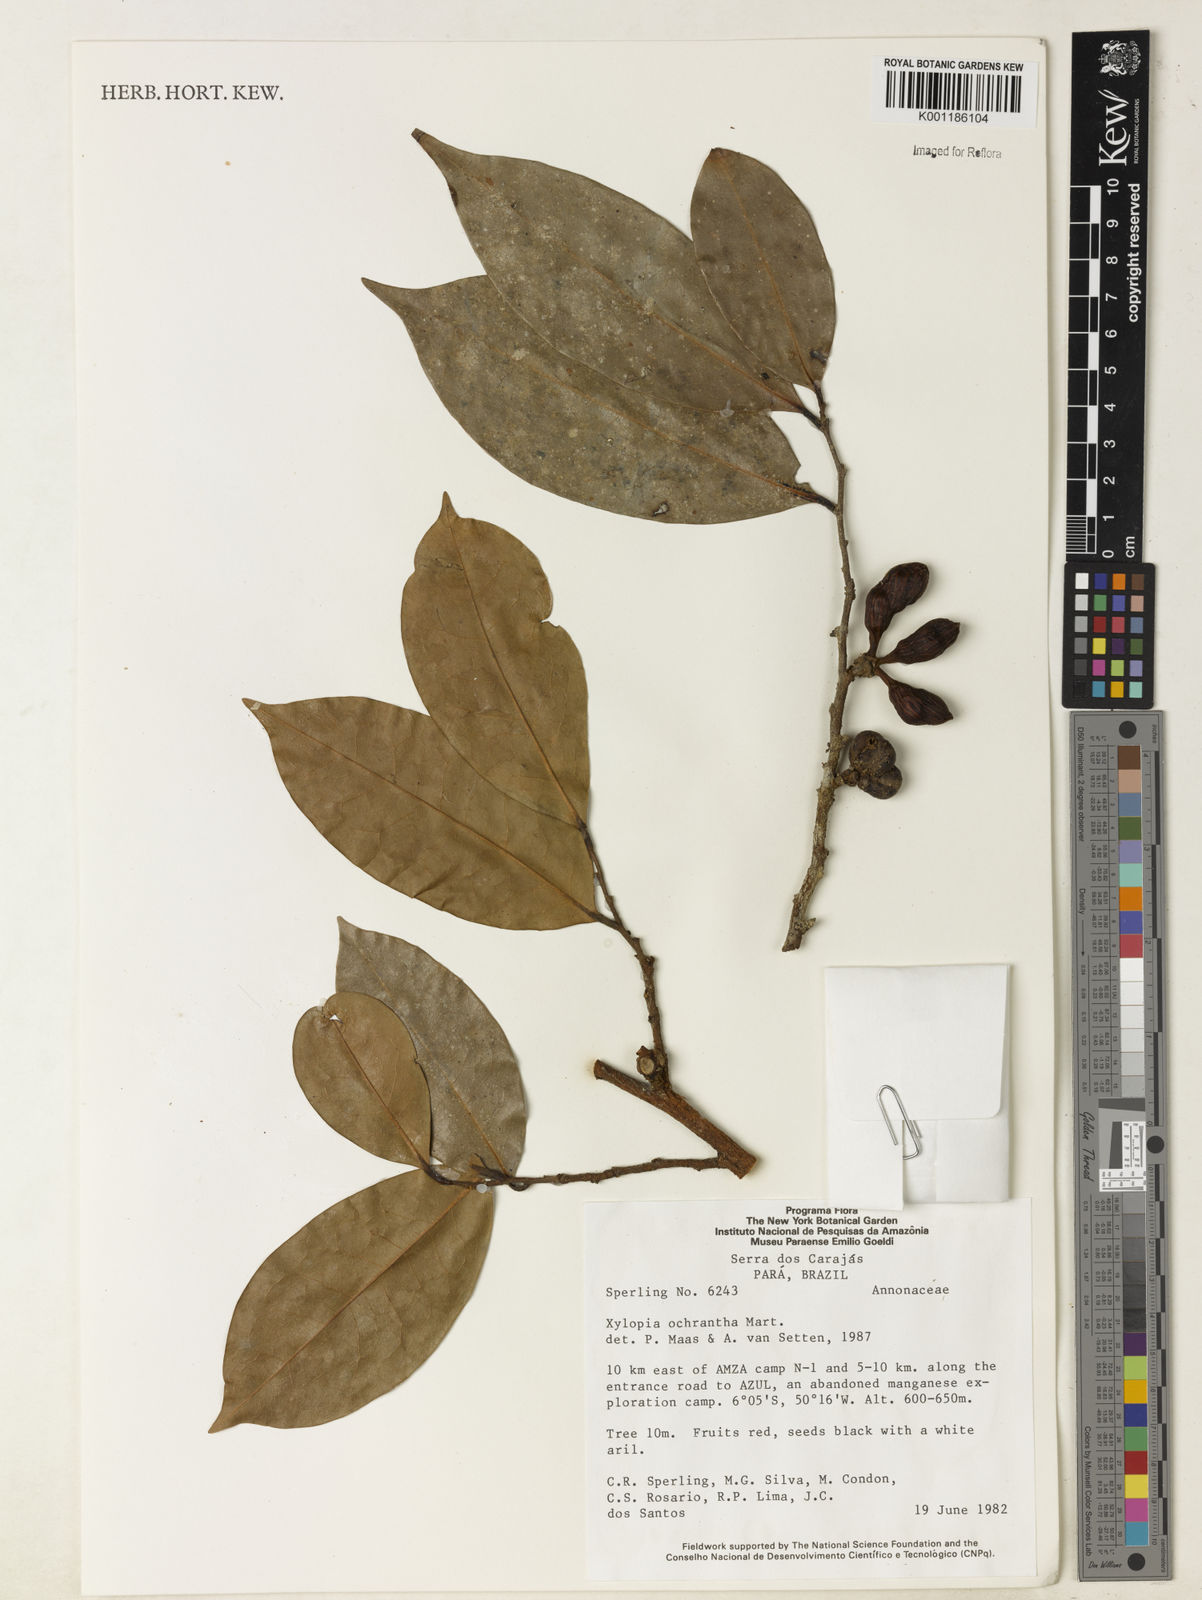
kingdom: Plantae
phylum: Tracheophyta
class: Magnoliopsida
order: Magnoliales
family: Annonaceae
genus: Xylopia
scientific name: Xylopia ochrantha
